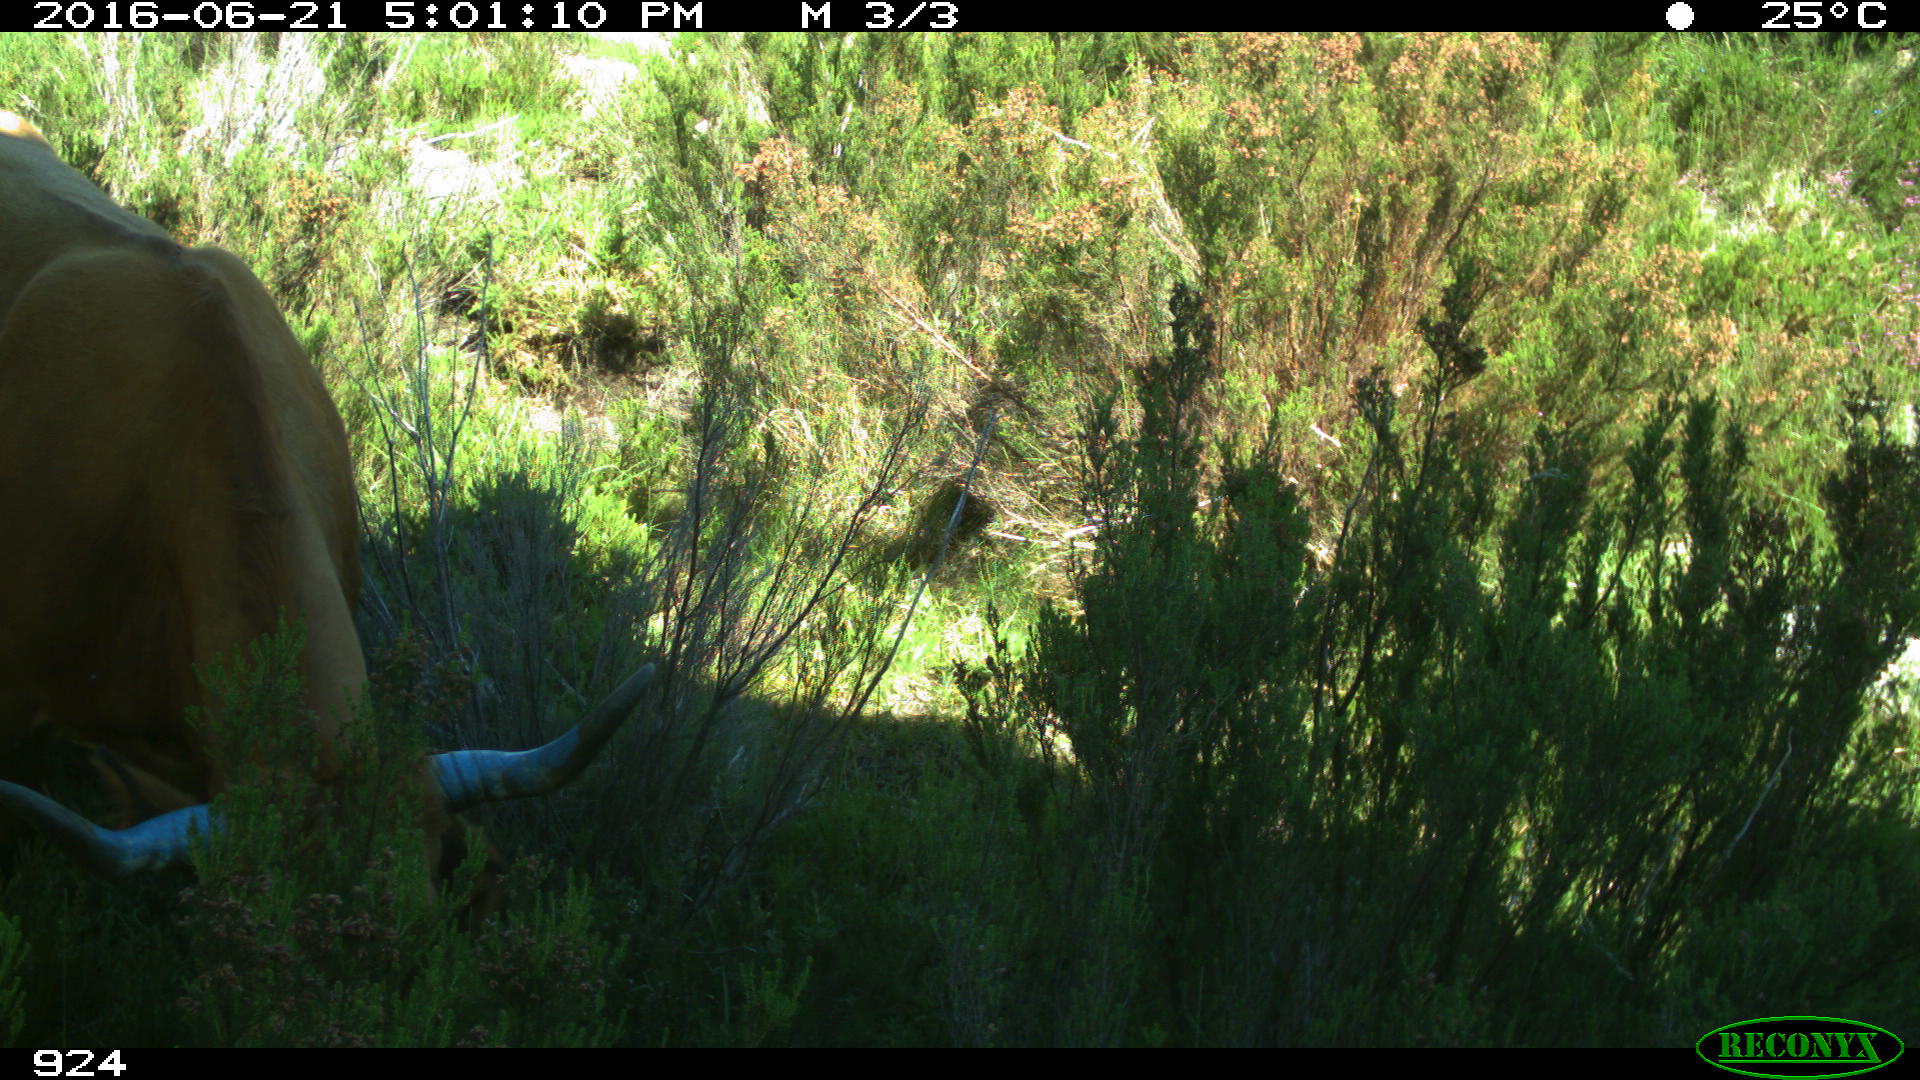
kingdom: Animalia
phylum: Chordata
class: Mammalia
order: Artiodactyla
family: Bovidae
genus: Bos
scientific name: Bos taurus
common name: Domesticated cattle
